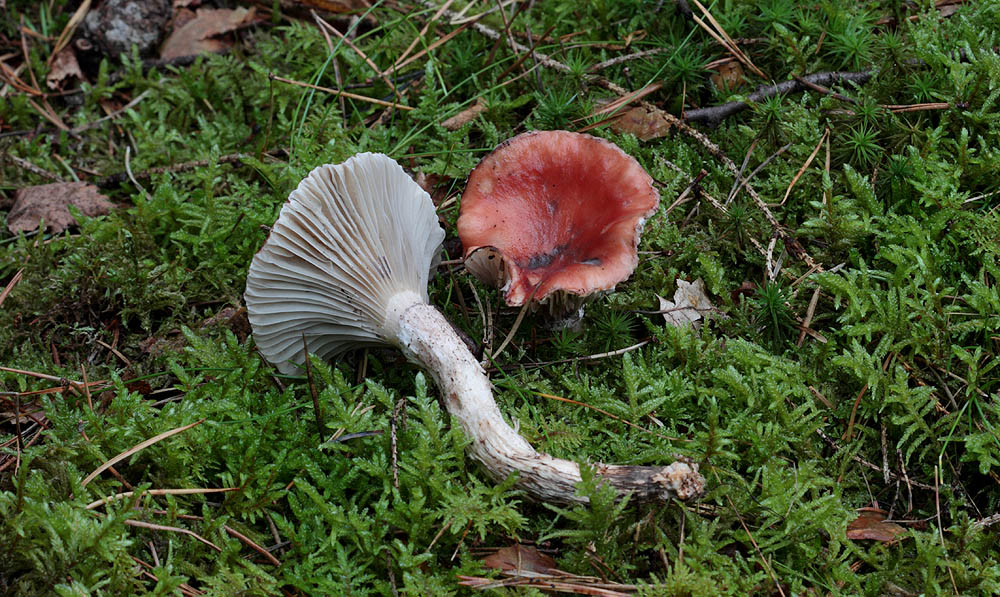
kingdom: Fungi
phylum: Basidiomycota
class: Agaricomycetes
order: Boletales
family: Gomphidiaceae
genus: Gomphidius
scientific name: Gomphidius roseus
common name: rosenrød slimslør
